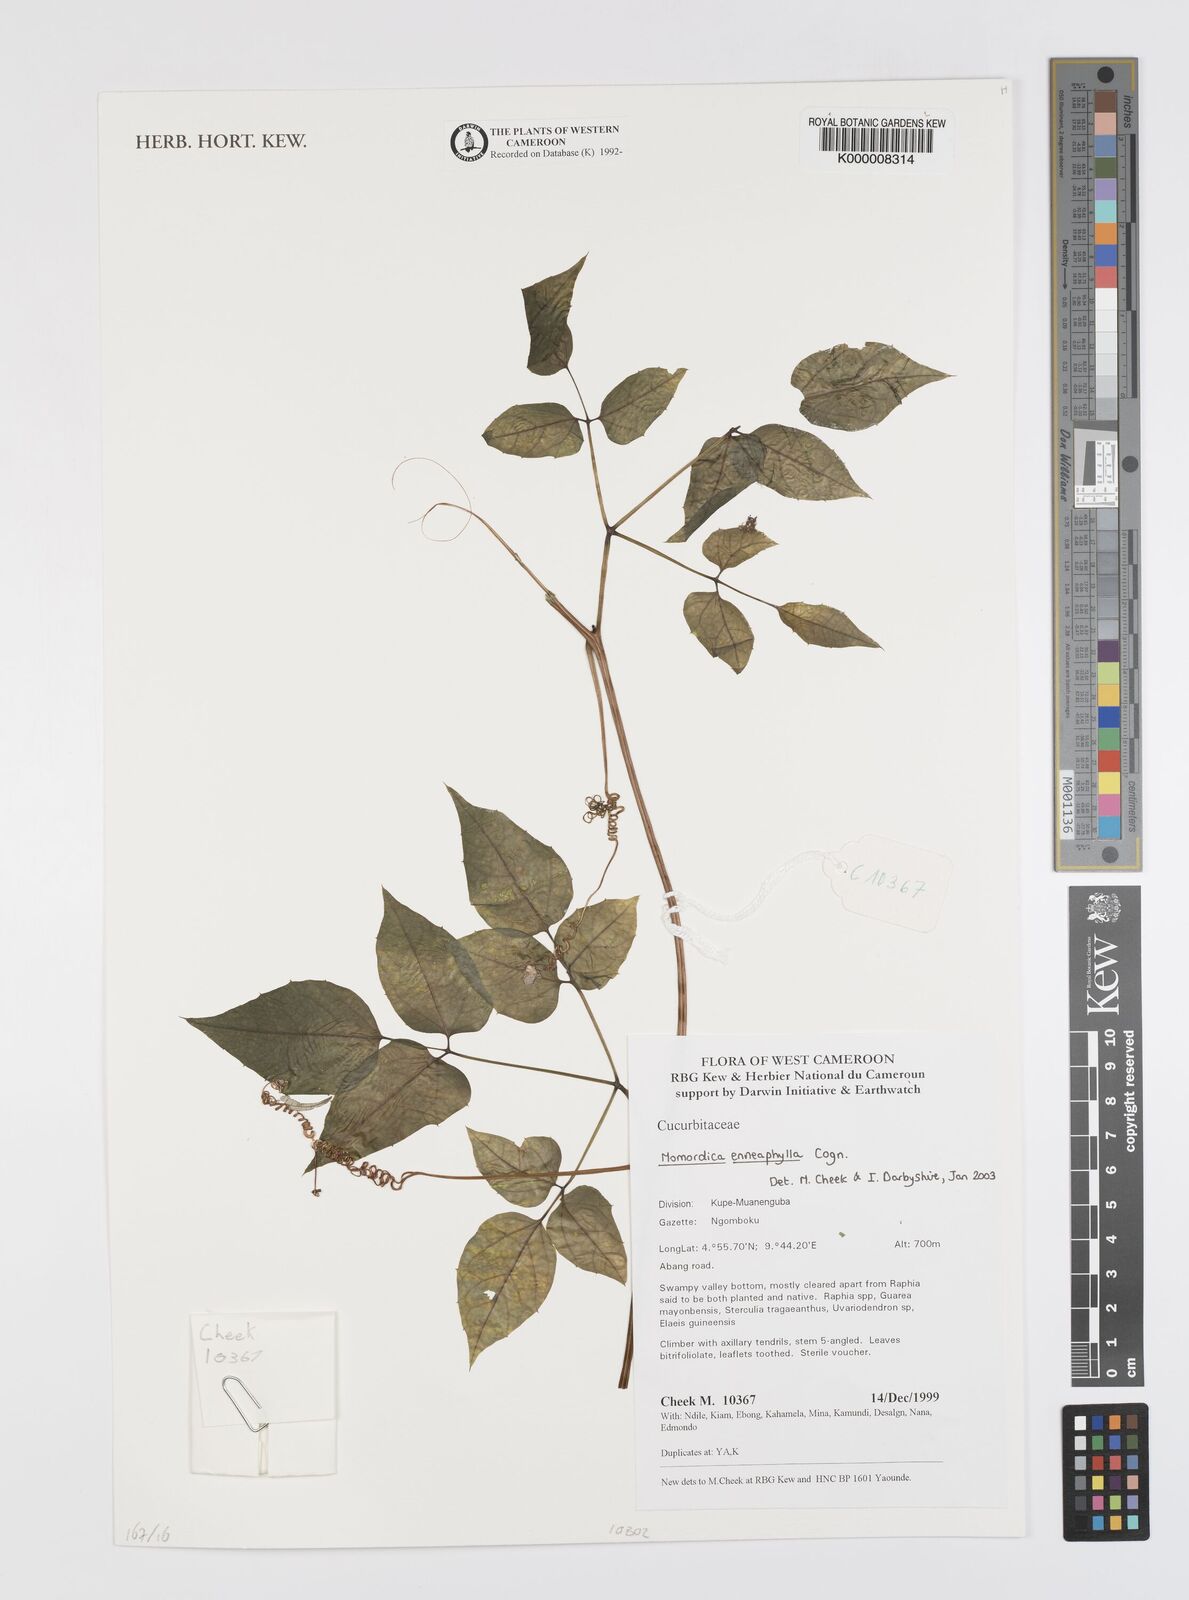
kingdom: Plantae
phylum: Tracheophyta
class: Magnoliopsida
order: Cucurbitales
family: Cucurbitaceae
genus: Momordica
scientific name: Momordica enneaphylla
